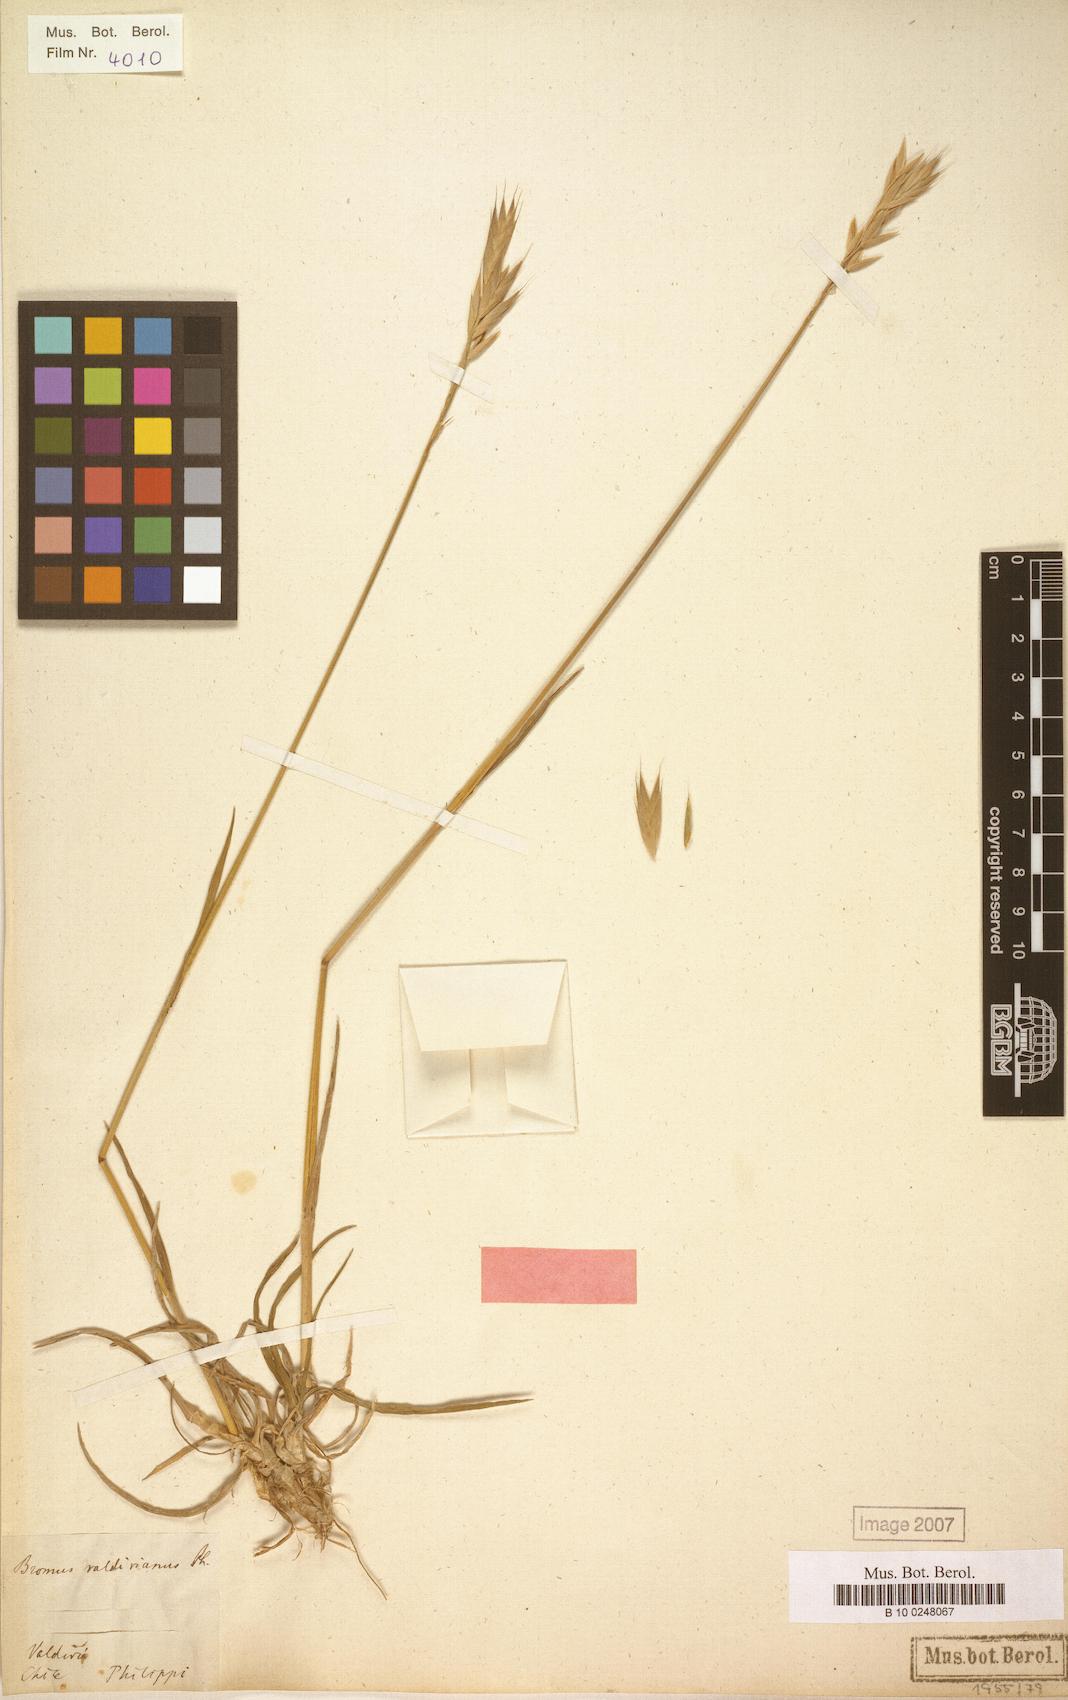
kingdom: Plantae
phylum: Tracheophyta
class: Liliopsida
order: Poales
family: Poaceae
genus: Bromus
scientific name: Bromus cebadilla
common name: Southern brome
